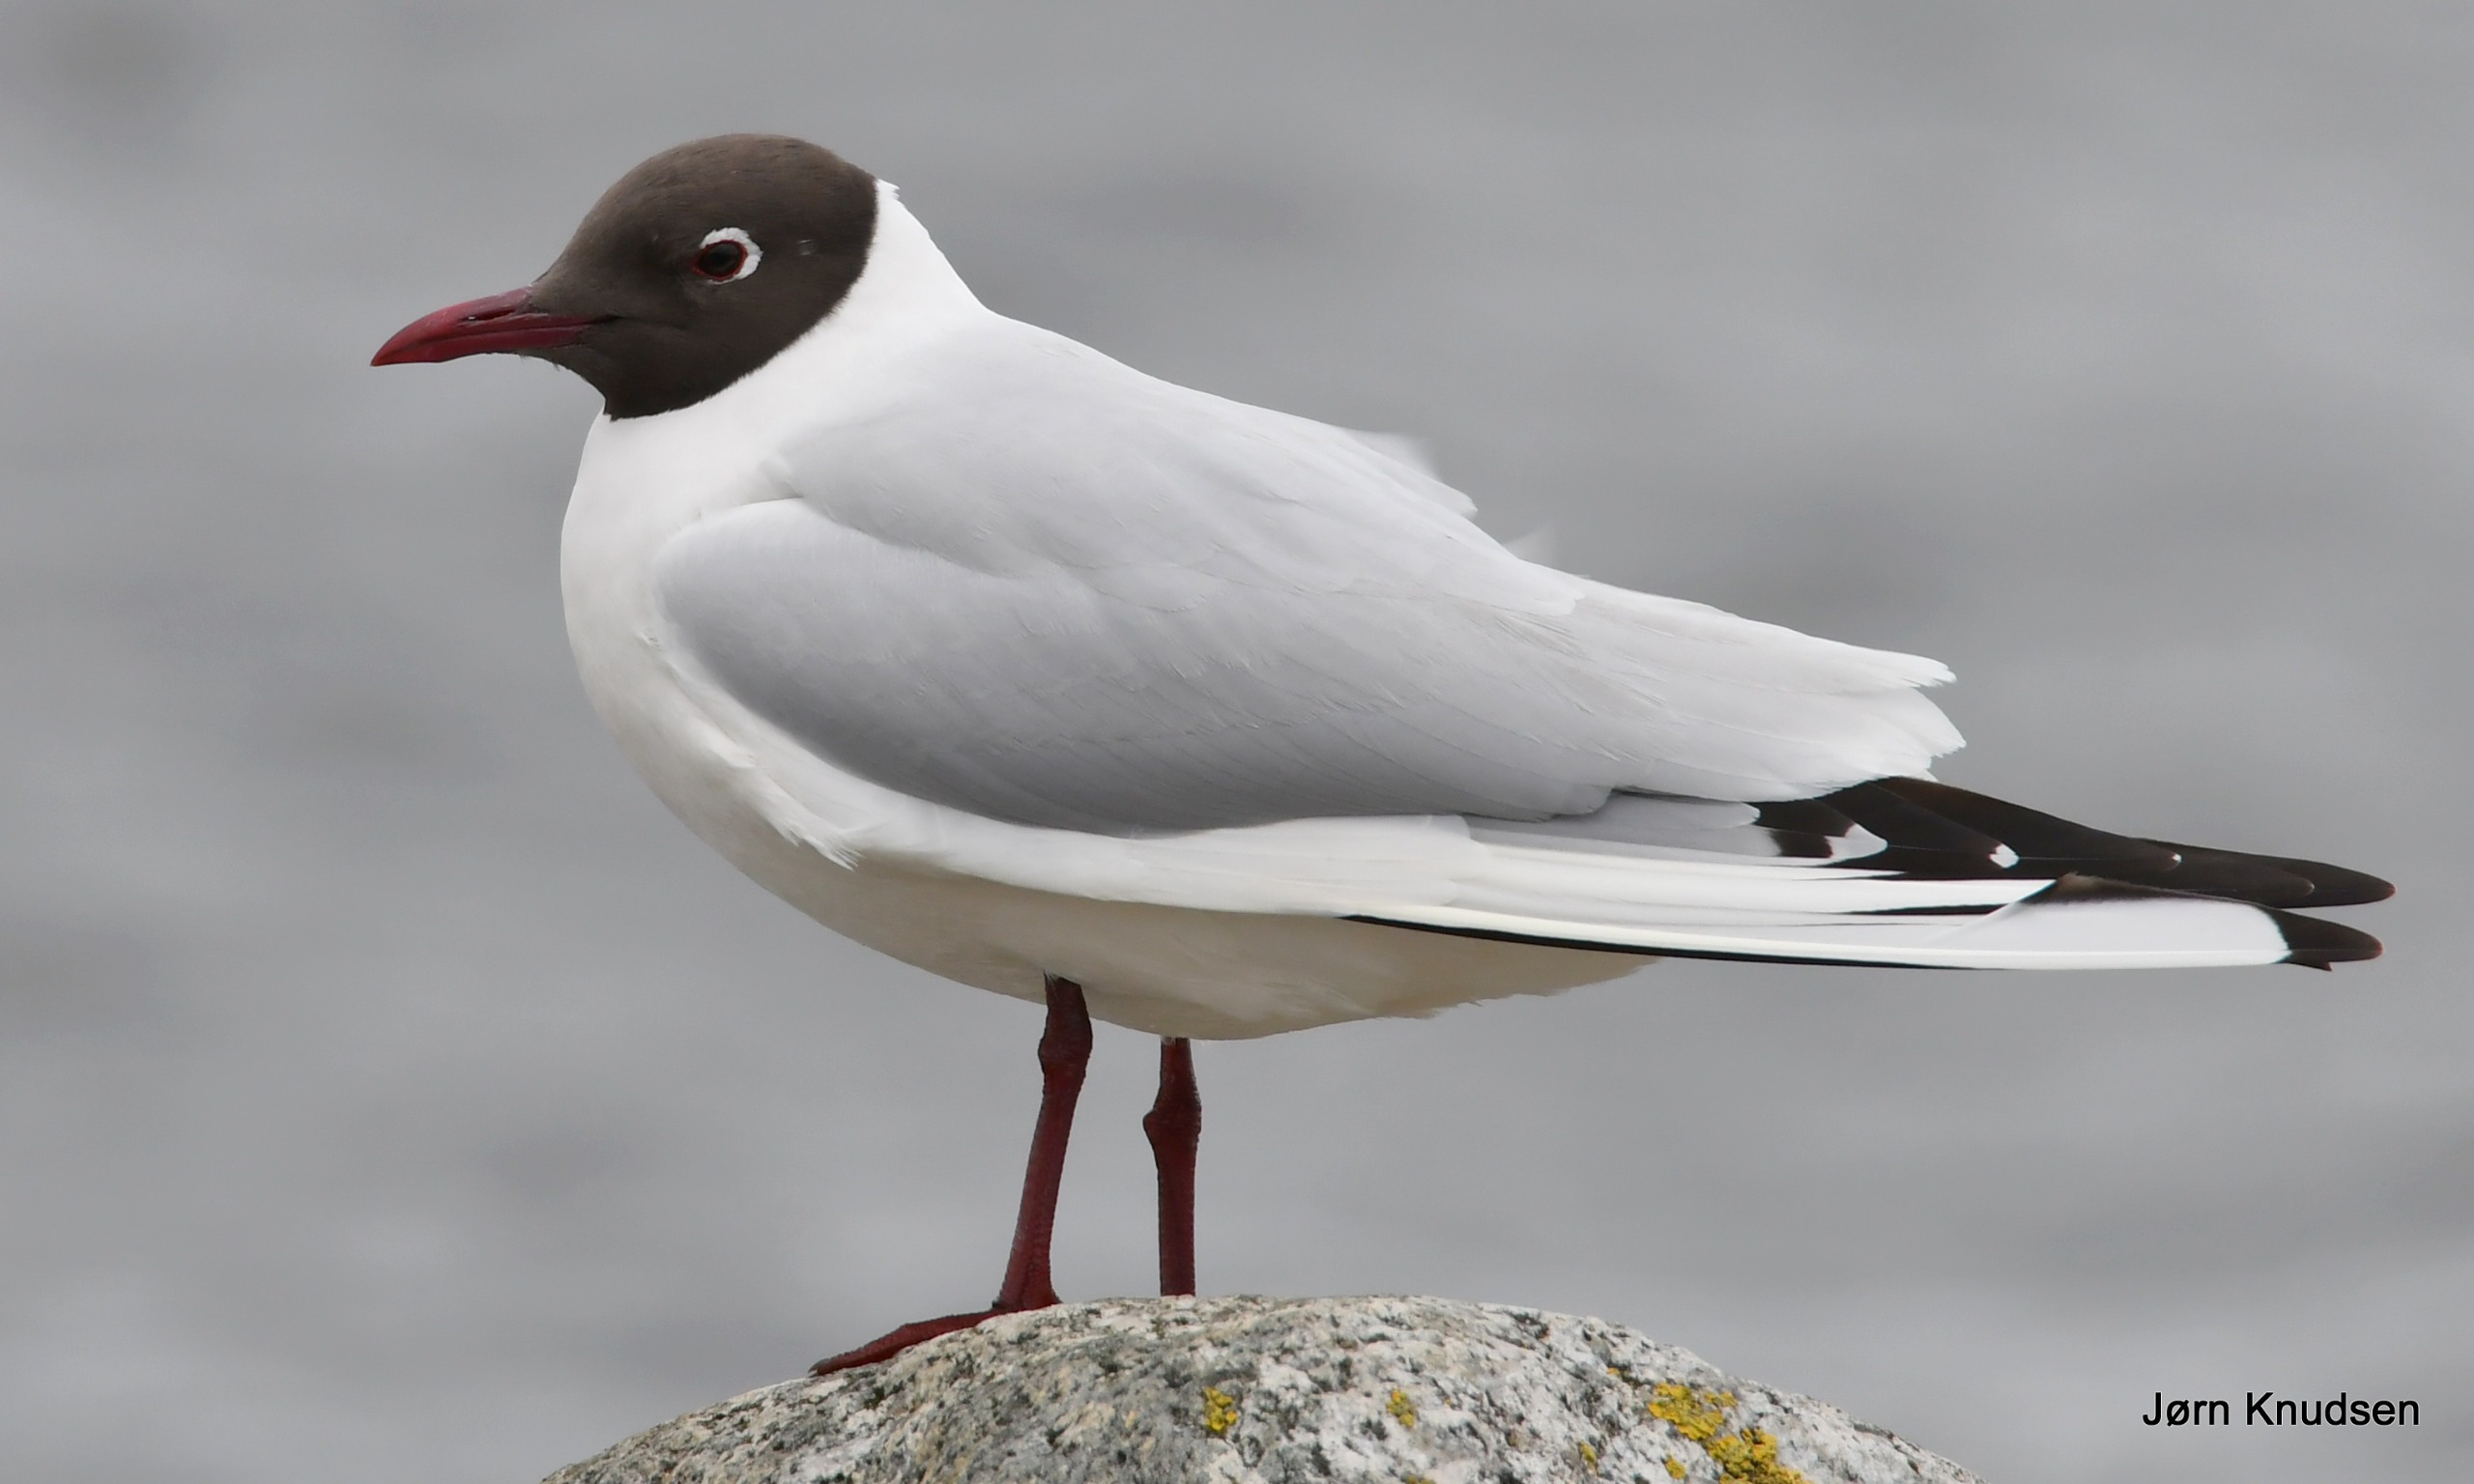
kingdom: Animalia
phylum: Chordata
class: Aves
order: Charadriiformes
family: Laridae
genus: Chroicocephalus
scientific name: Chroicocephalus ridibundus
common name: Hættemåge
